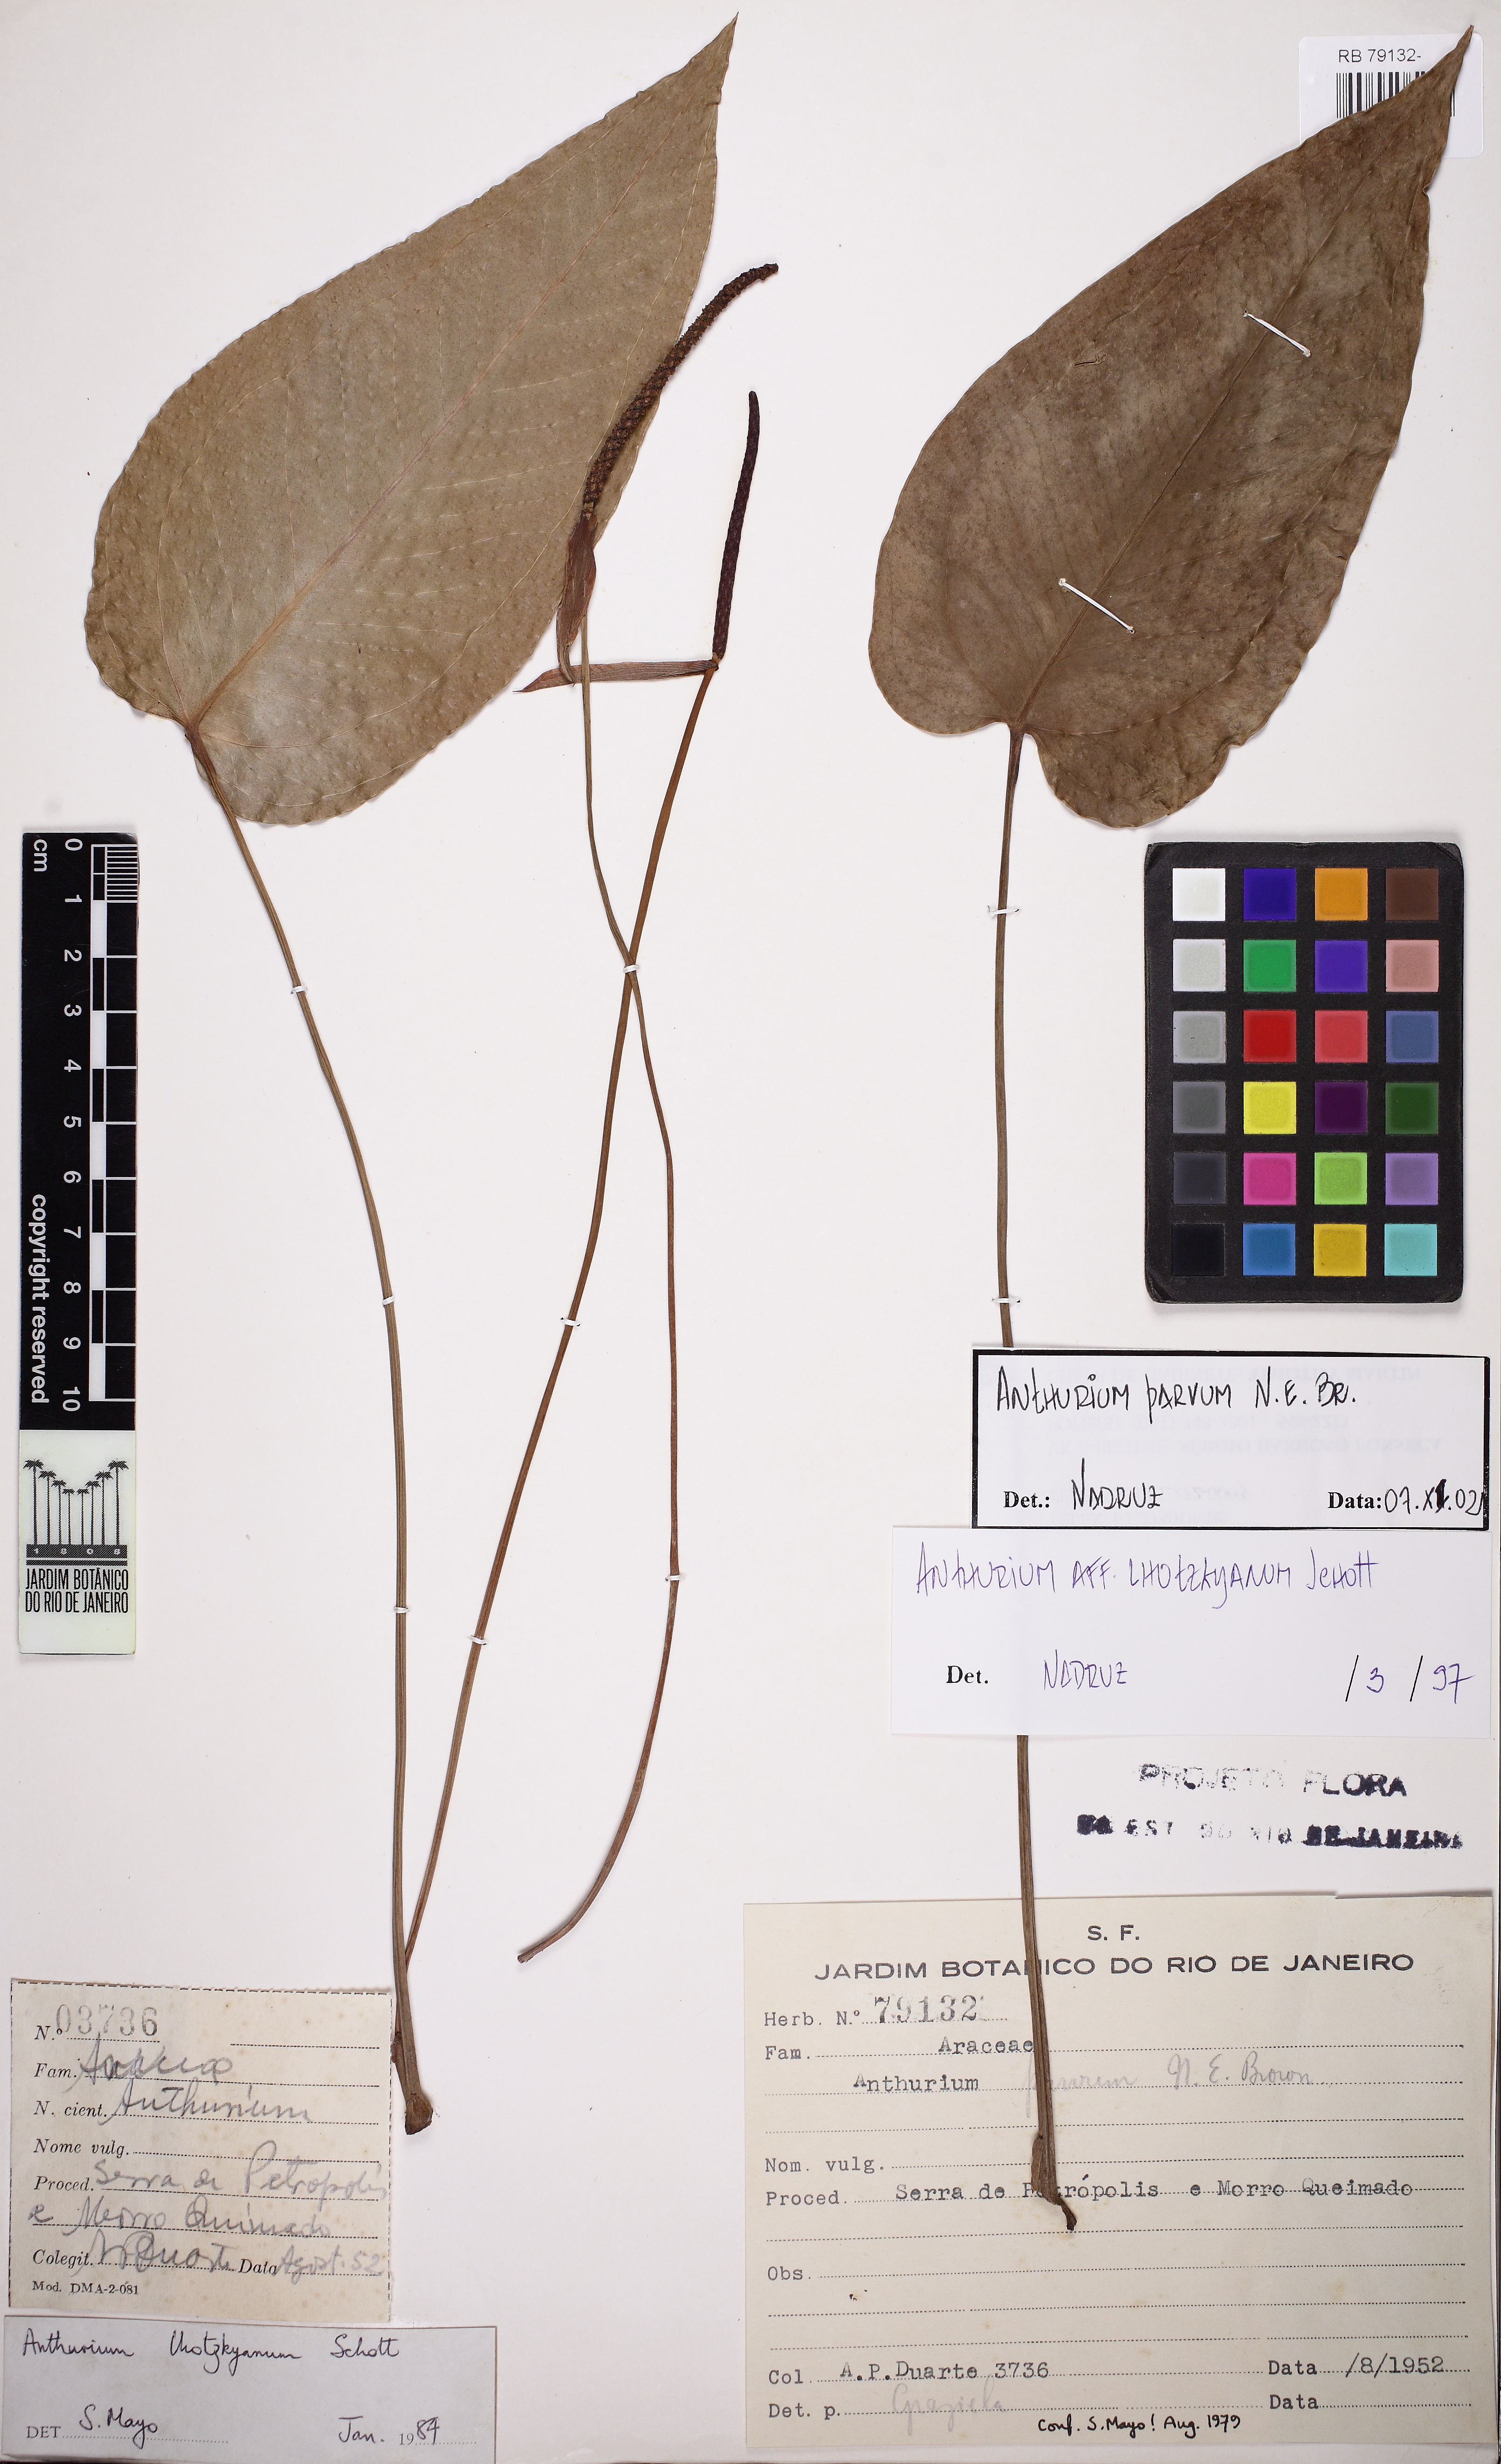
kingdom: Plantae
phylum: Tracheophyta
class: Liliopsida
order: Alismatales
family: Araceae
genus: Anthurium
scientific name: Anthurium parvum
